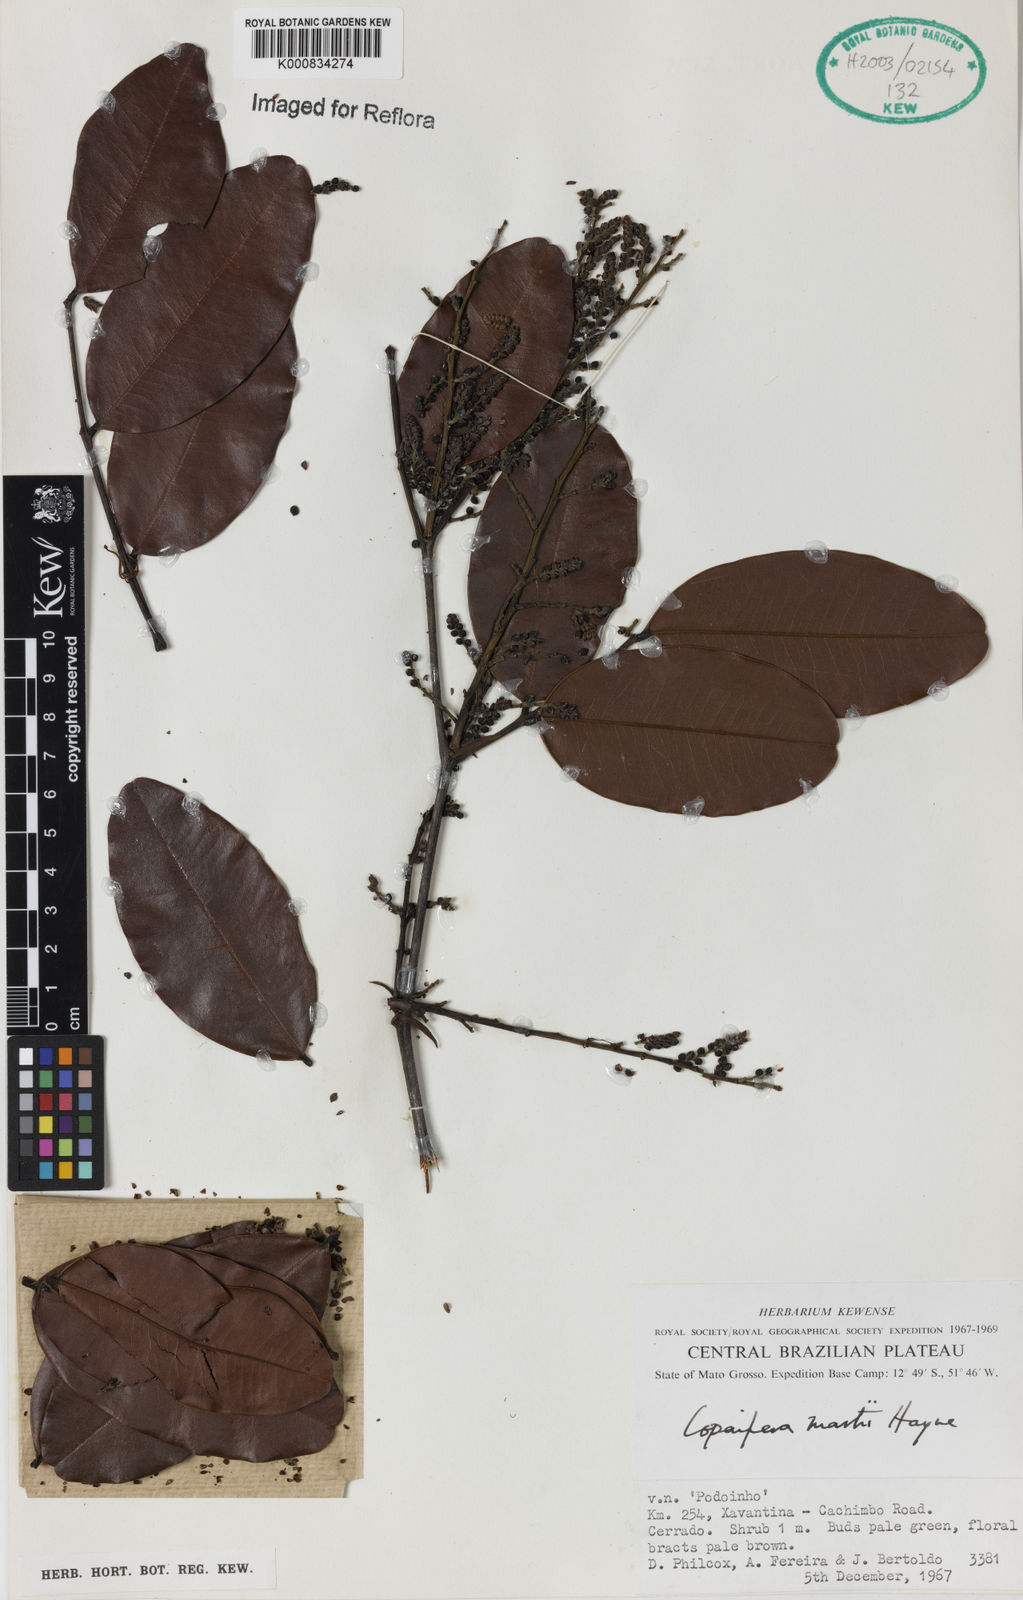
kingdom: Plantae
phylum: Tracheophyta
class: Magnoliopsida
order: Fabales
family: Fabaceae
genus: Copaifera
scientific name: Copaifera martii
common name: Copaiba
